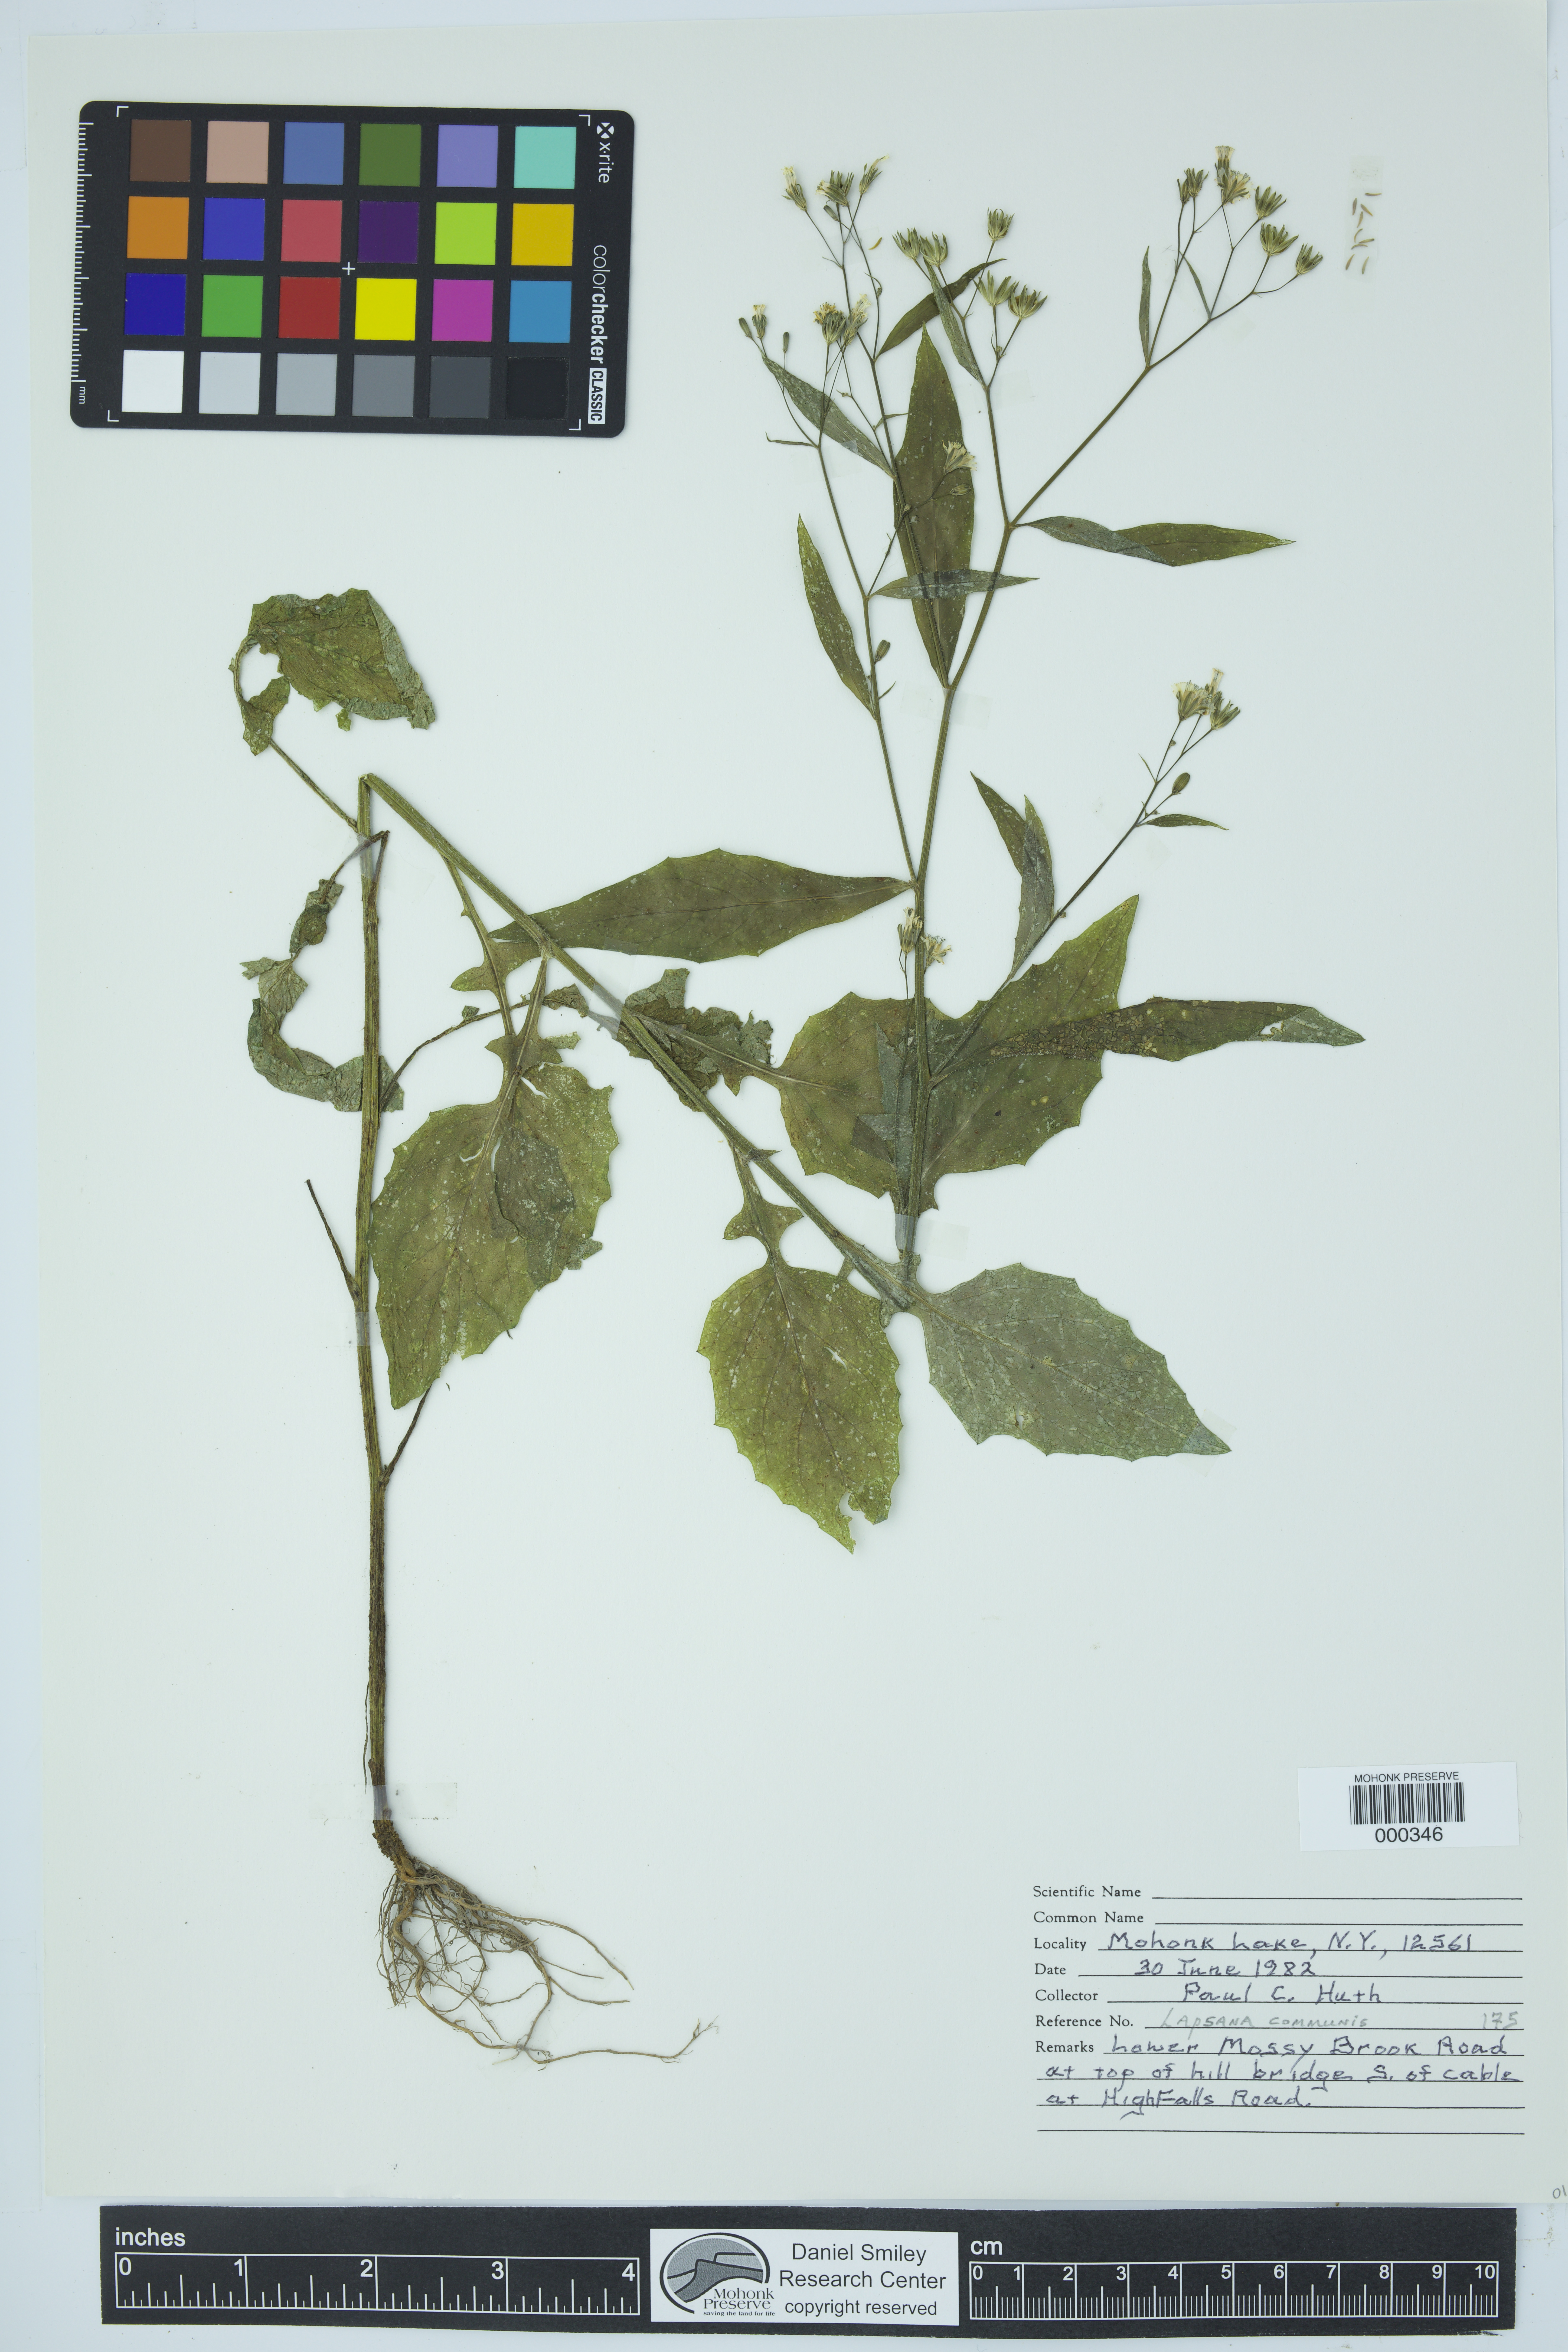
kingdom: Plantae
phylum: Tracheophyta
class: Magnoliopsida
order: Asterales
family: Asteraceae
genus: Lapsana
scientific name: Lapsana communis
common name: Nipplewort
